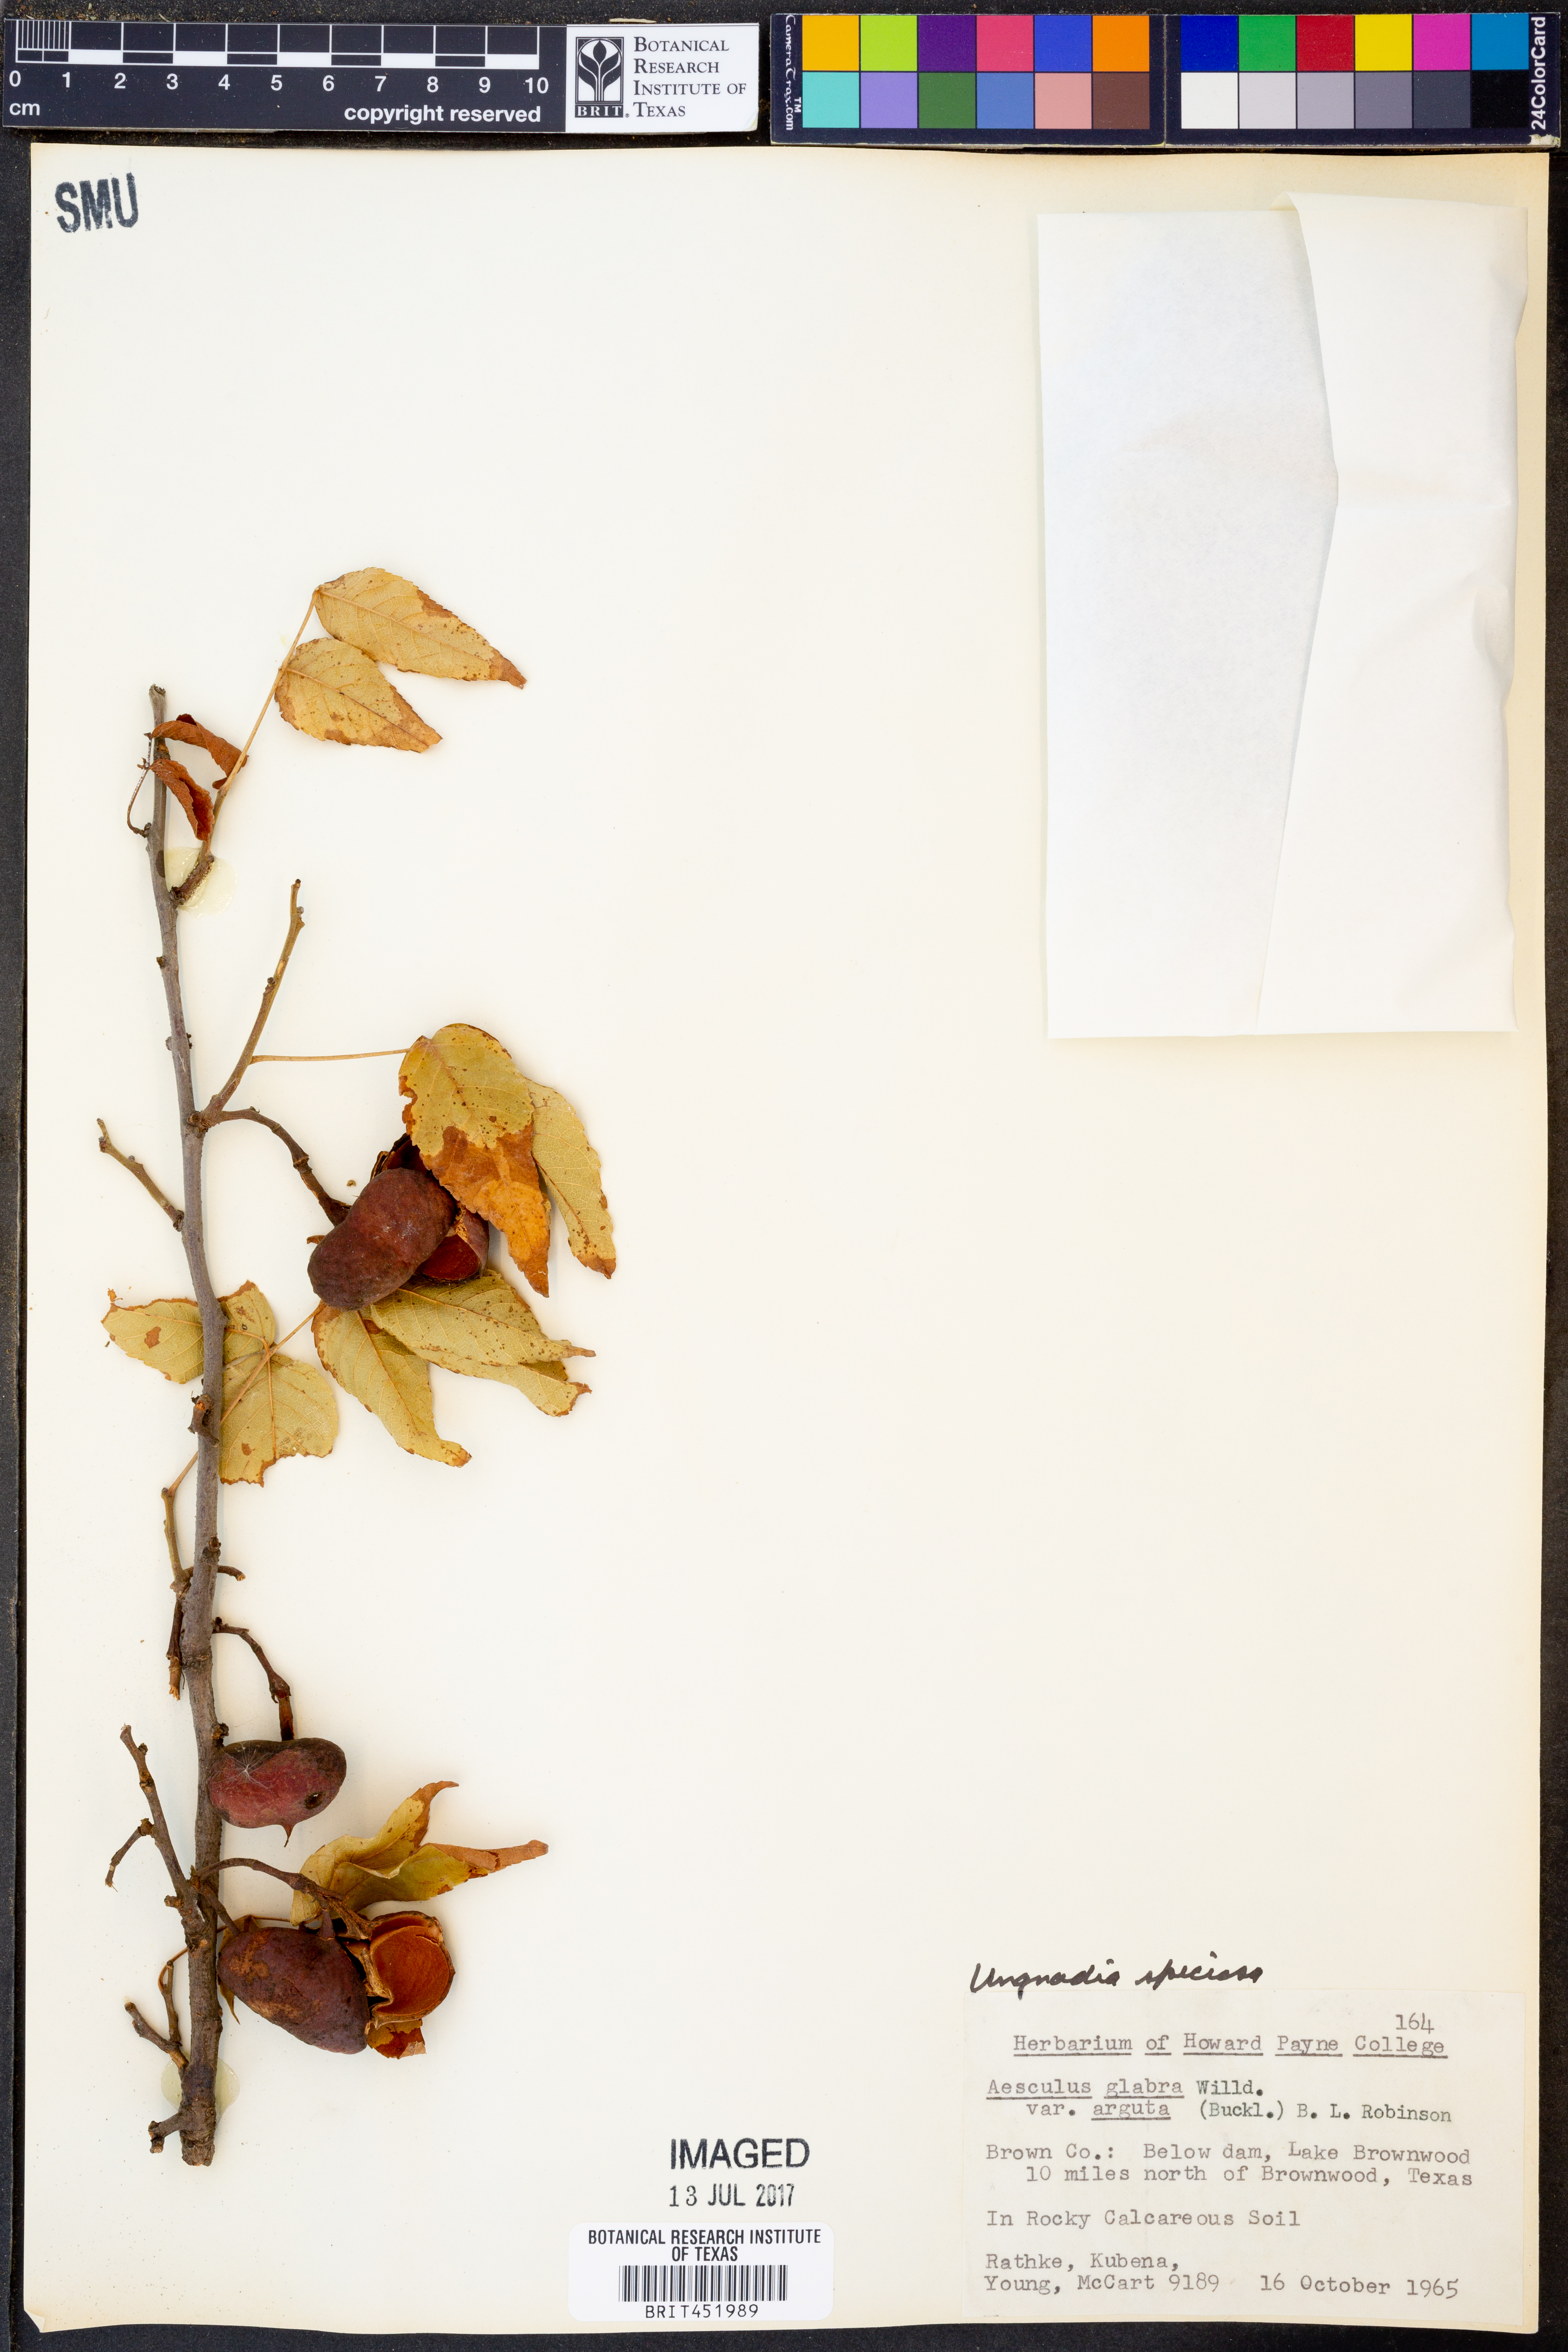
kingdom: Plantae
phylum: Tracheophyta
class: Magnoliopsida
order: Sapindales
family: Sapindaceae
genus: Ungnadia
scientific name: Ungnadia speciosa
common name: Texas-buckeye
